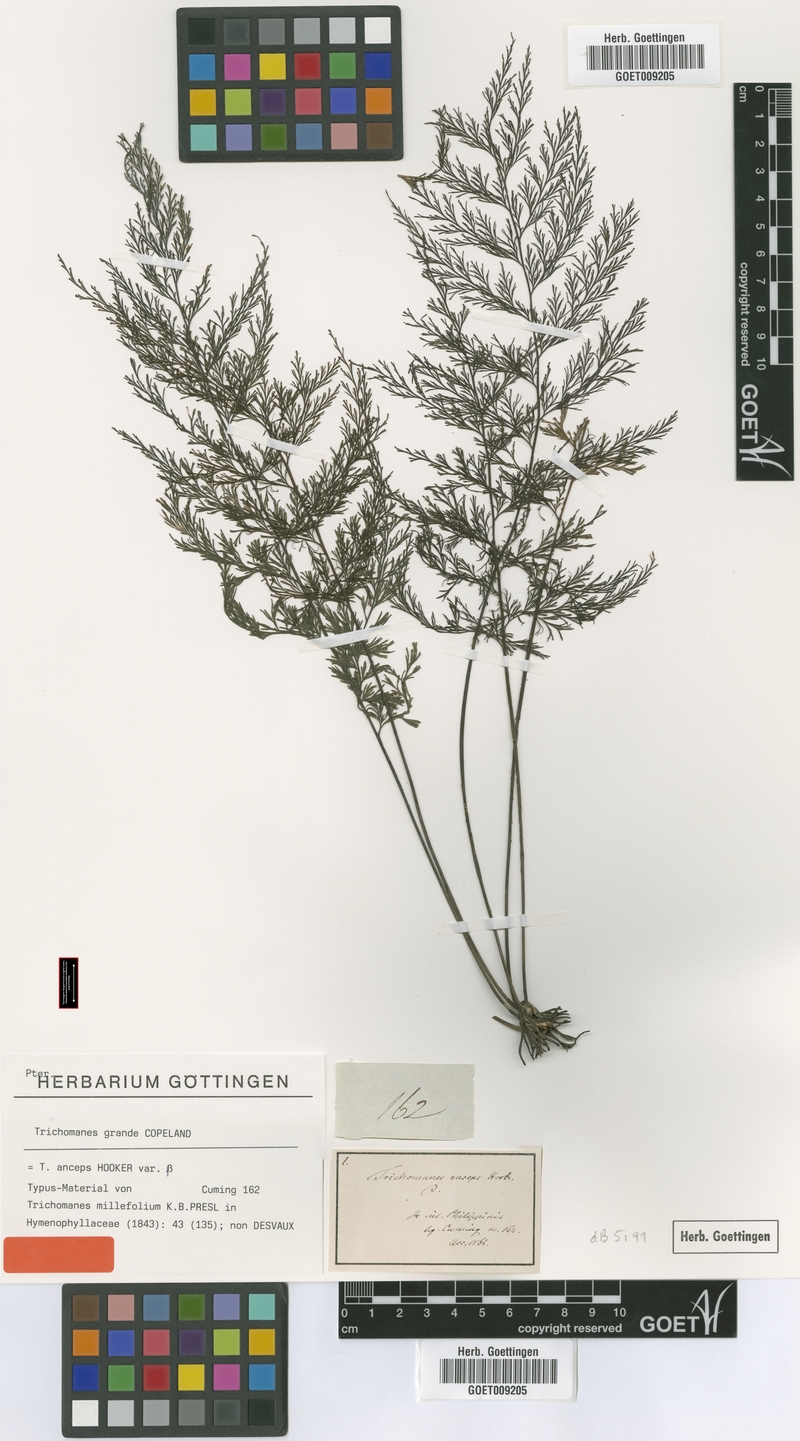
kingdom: Plantae
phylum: Tracheophyta
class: Polypodiopsida
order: Hymenophyllales
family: Hymenophyllaceae
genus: Crepidomanes
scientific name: Crepidomanes grande
